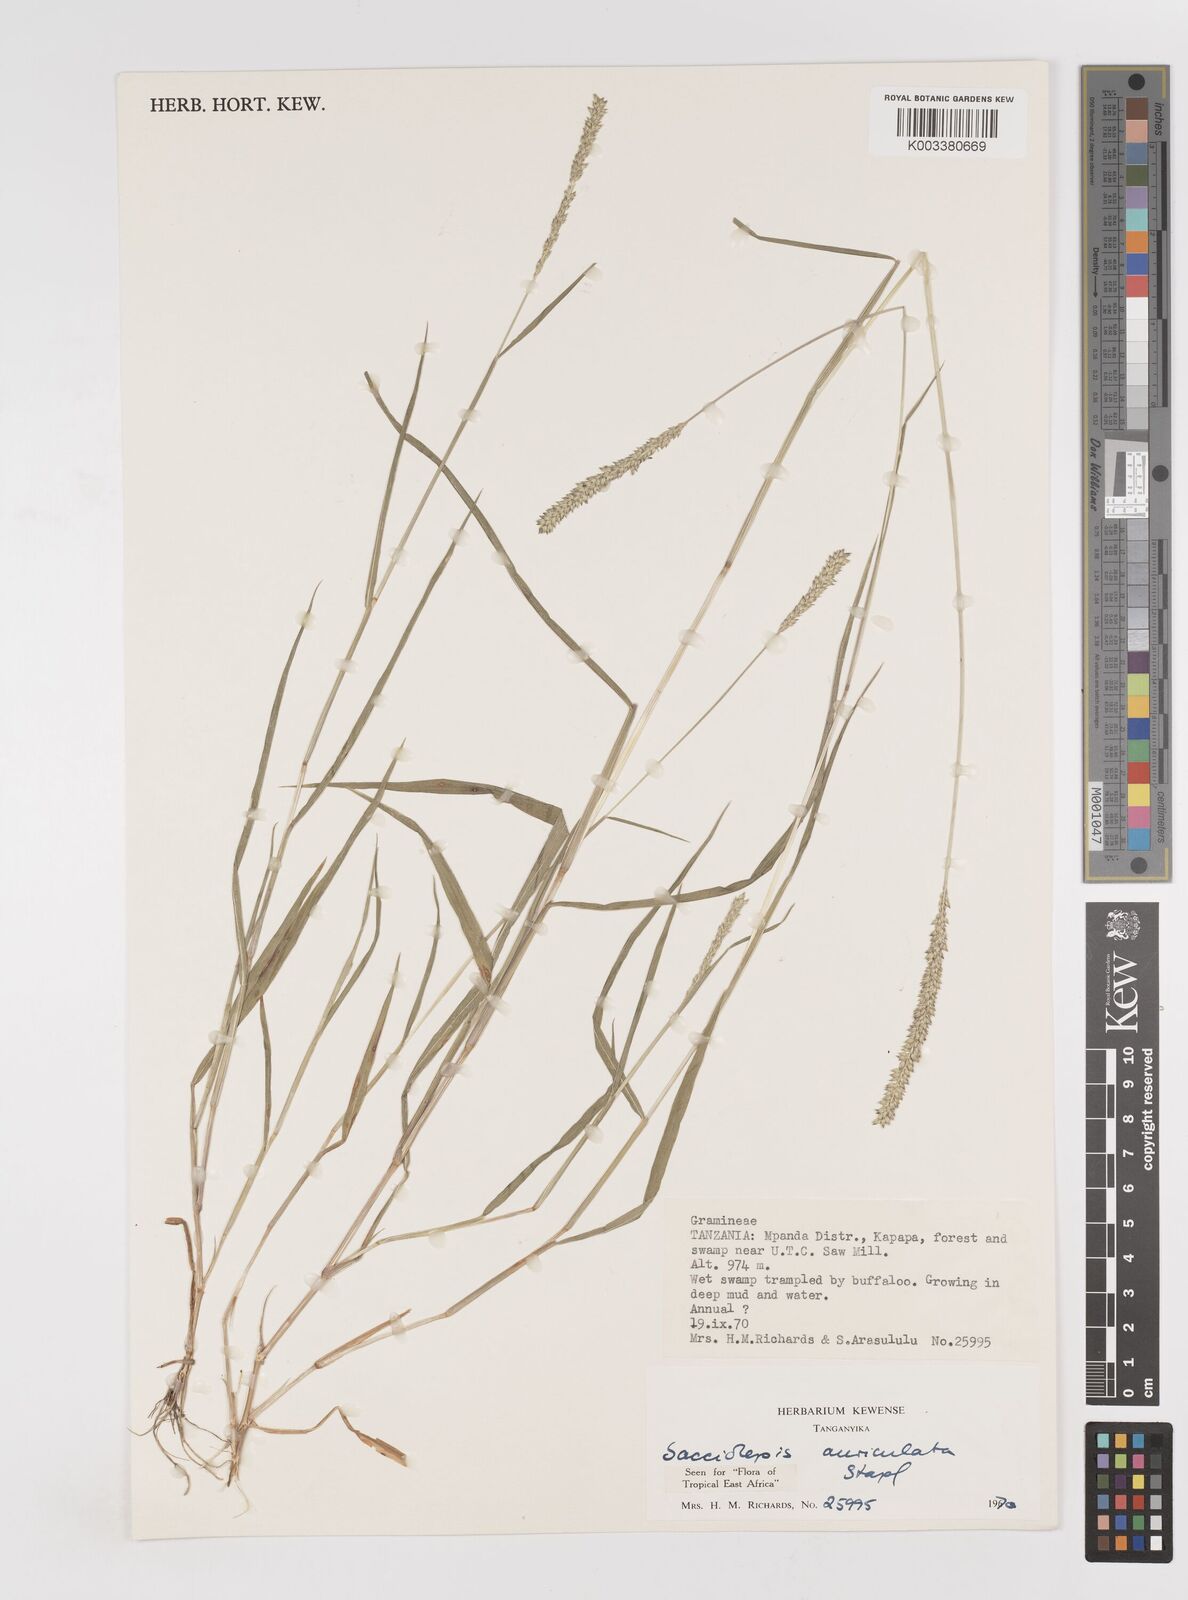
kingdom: Plantae
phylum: Tracheophyta
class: Liliopsida
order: Poales
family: Poaceae
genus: Sacciolepis
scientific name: Sacciolepis indica
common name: Glenwoodgrass
